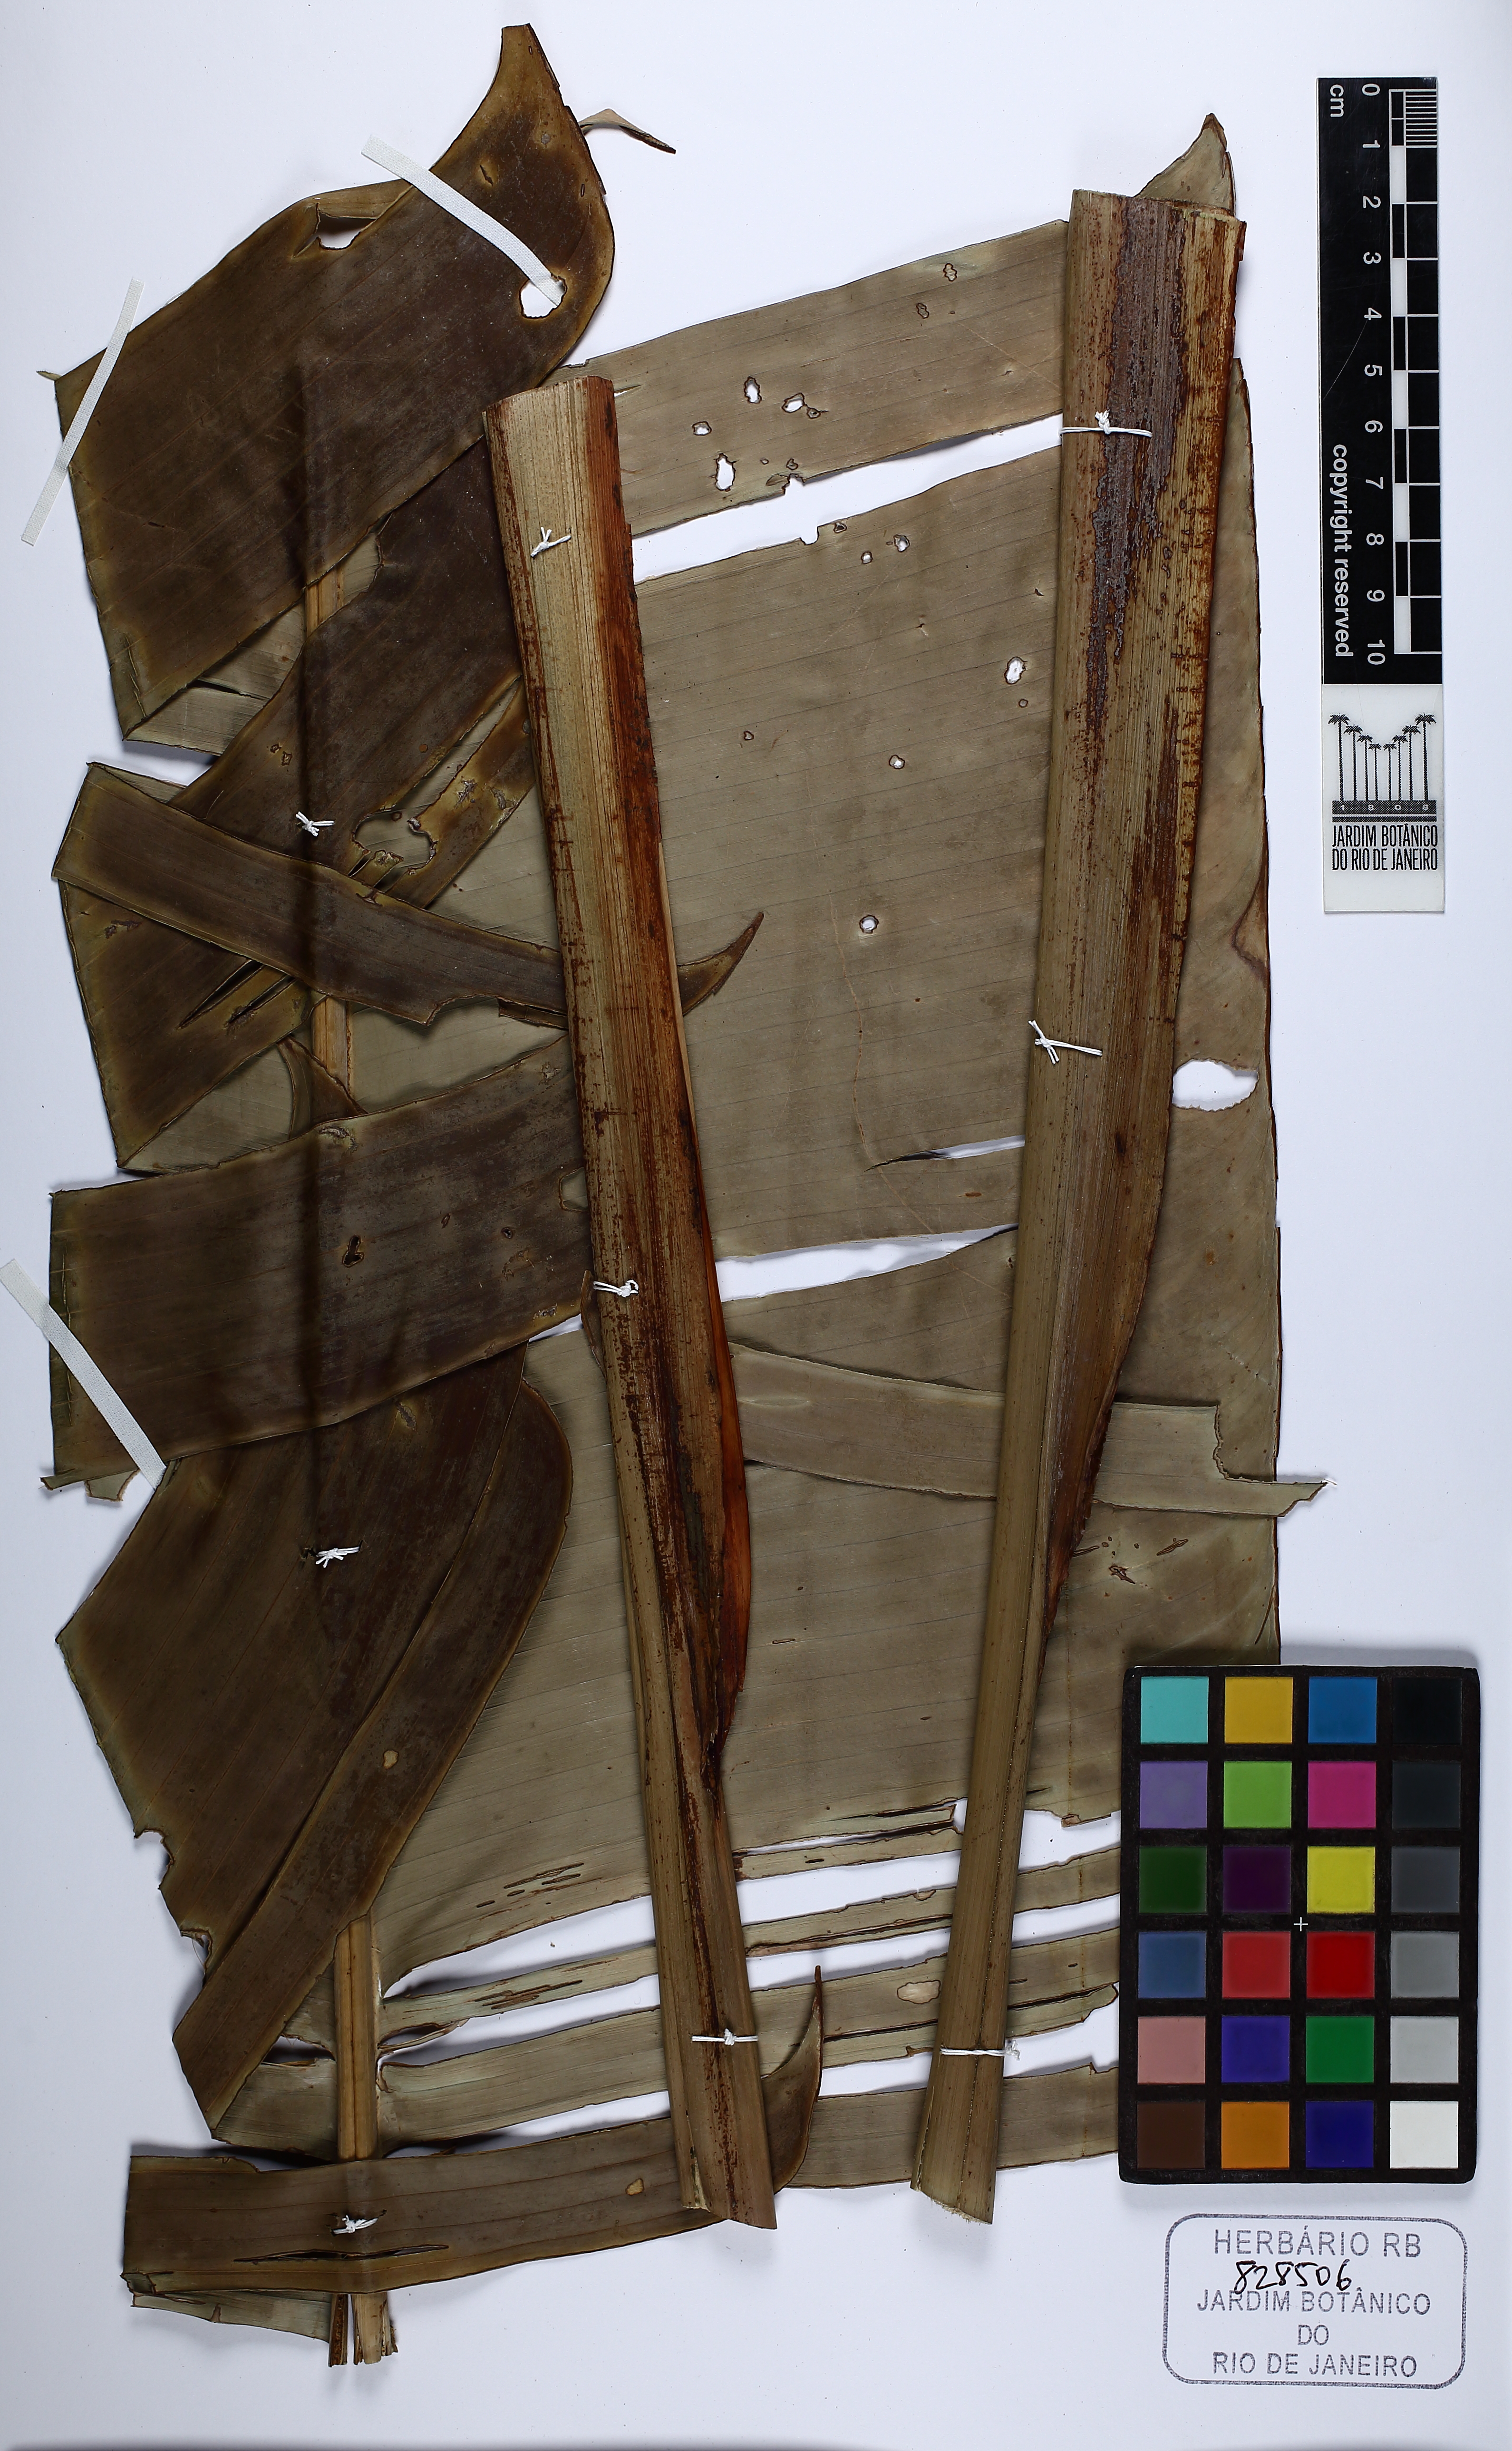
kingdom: Plantae
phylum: Tracheophyta
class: Liliopsida
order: Zingiberales
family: Heliconiaceae
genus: Heliconia
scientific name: Heliconia pendula
